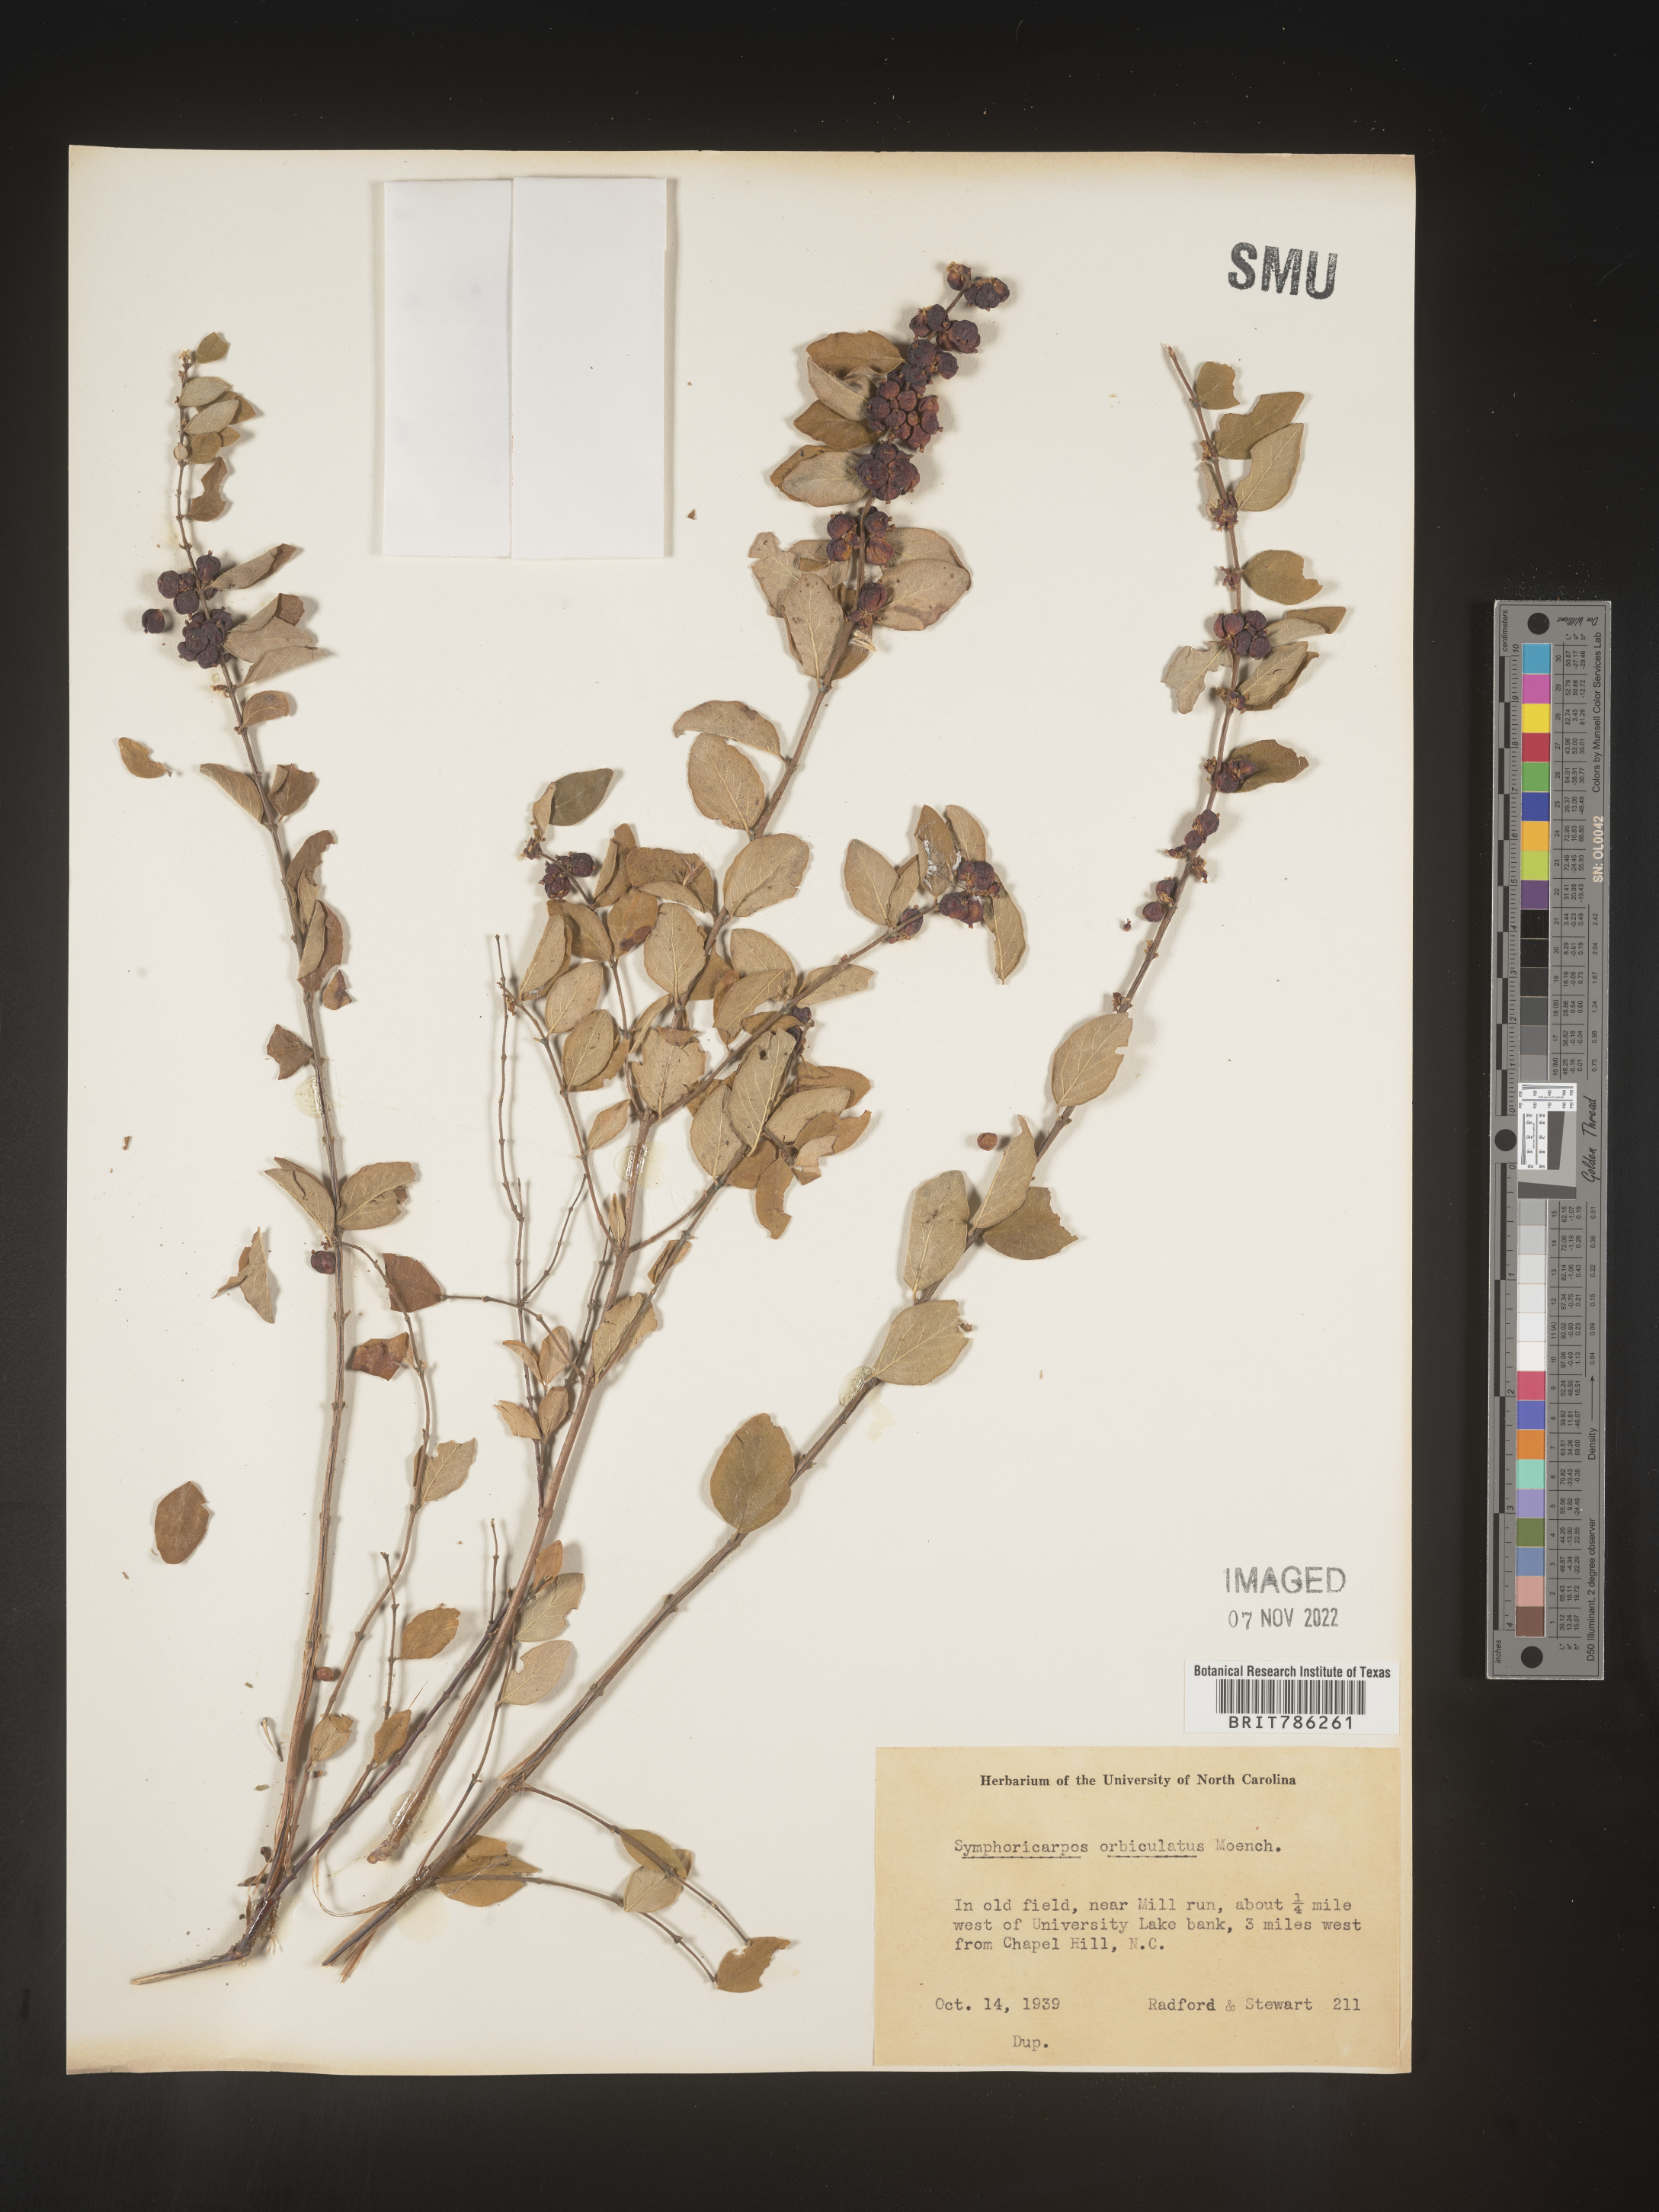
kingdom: Plantae
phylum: Tracheophyta
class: Magnoliopsida
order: Dipsacales
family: Caprifoliaceae
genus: Symphoricarpos
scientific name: Symphoricarpos orbiculatus
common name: Coralberry
